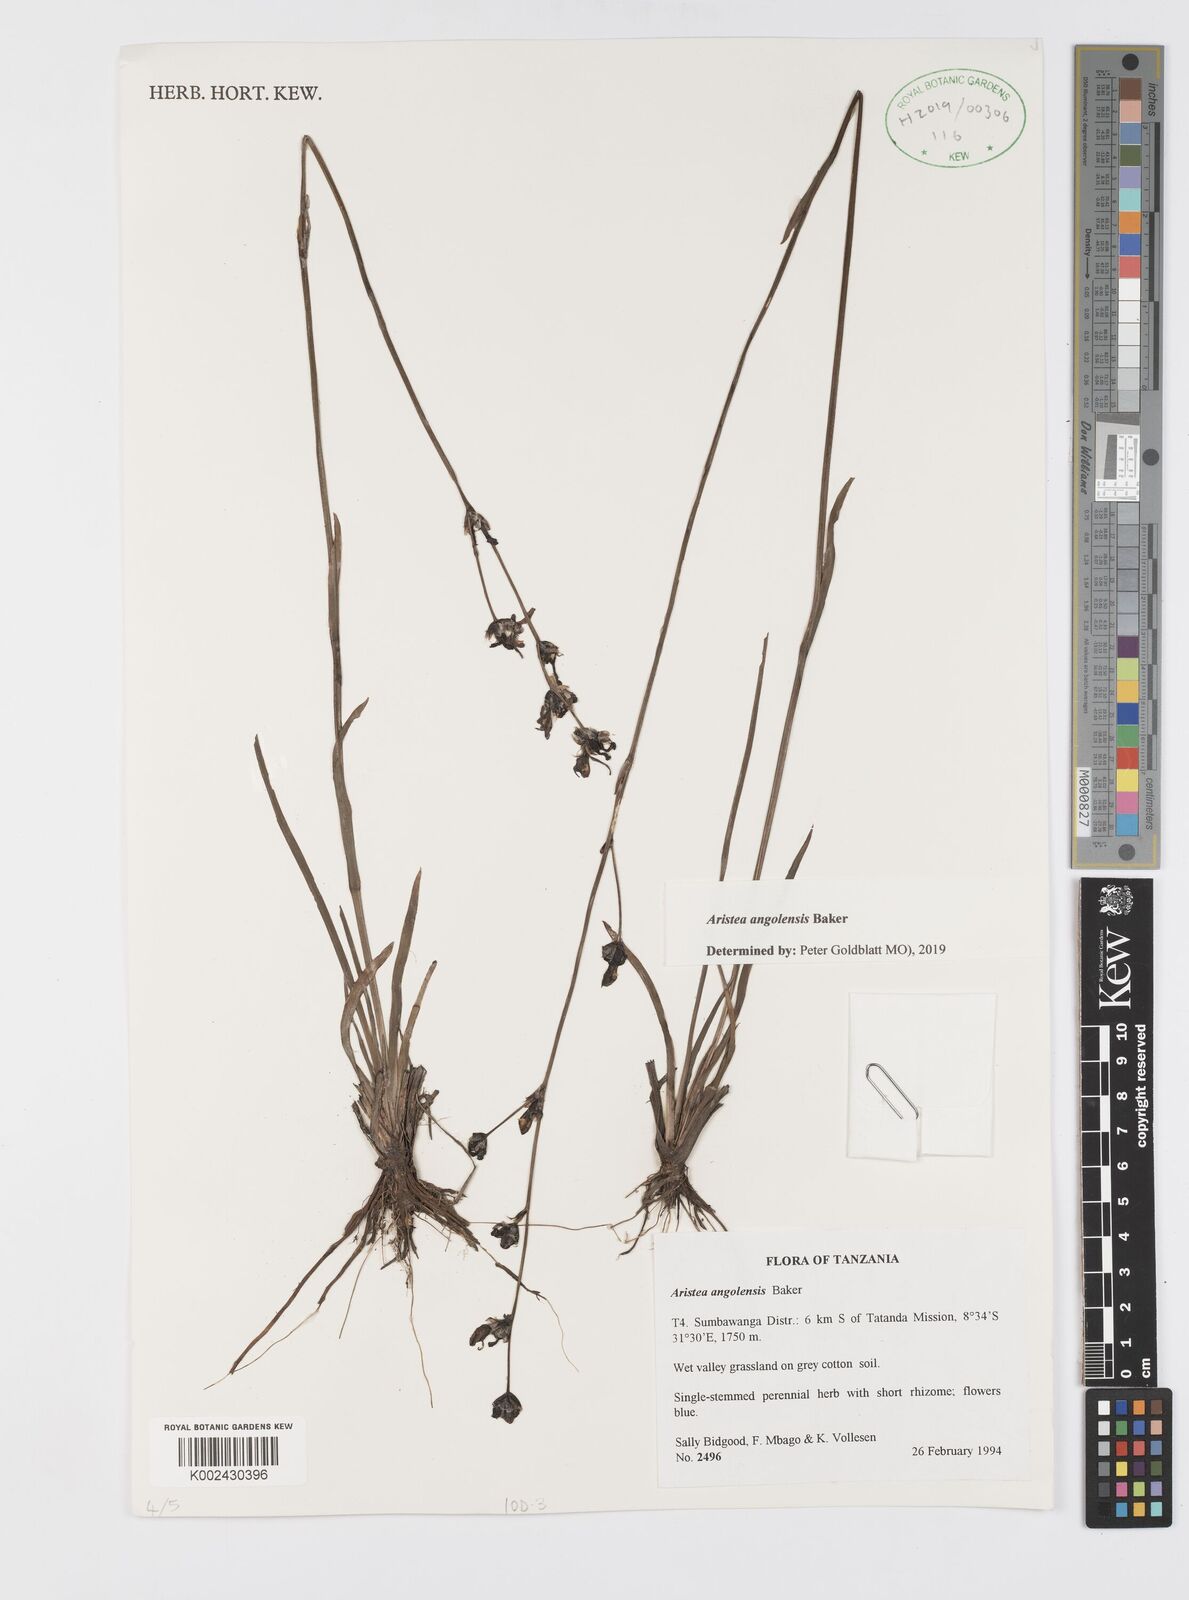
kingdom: Plantae
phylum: Tracheophyta
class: Liliopsida
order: Asparagales
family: Iridaceae
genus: Aristea
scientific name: Aristea angolensis
